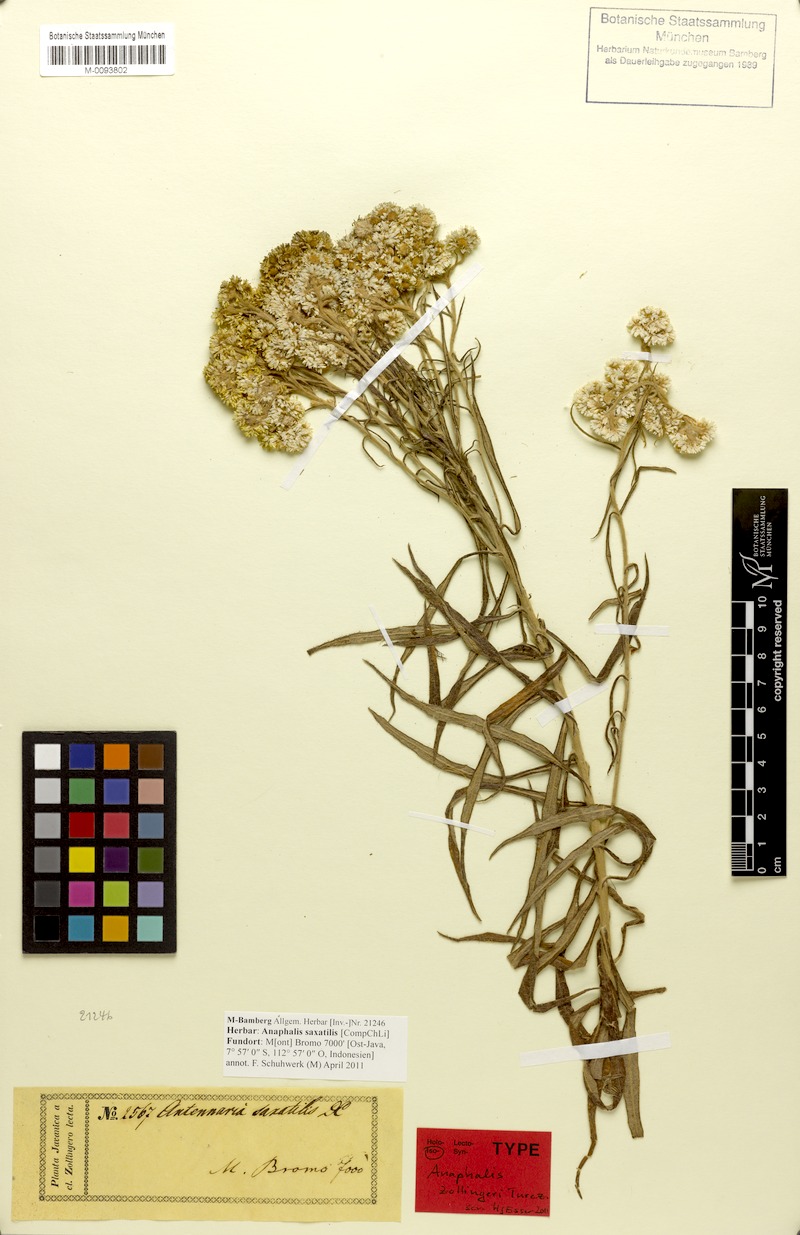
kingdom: Plantae
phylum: Tracheophyta
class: Magnoliopsida
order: Asterales
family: Asteraceae
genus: Anaphalis
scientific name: Anaphalis saxatilis
